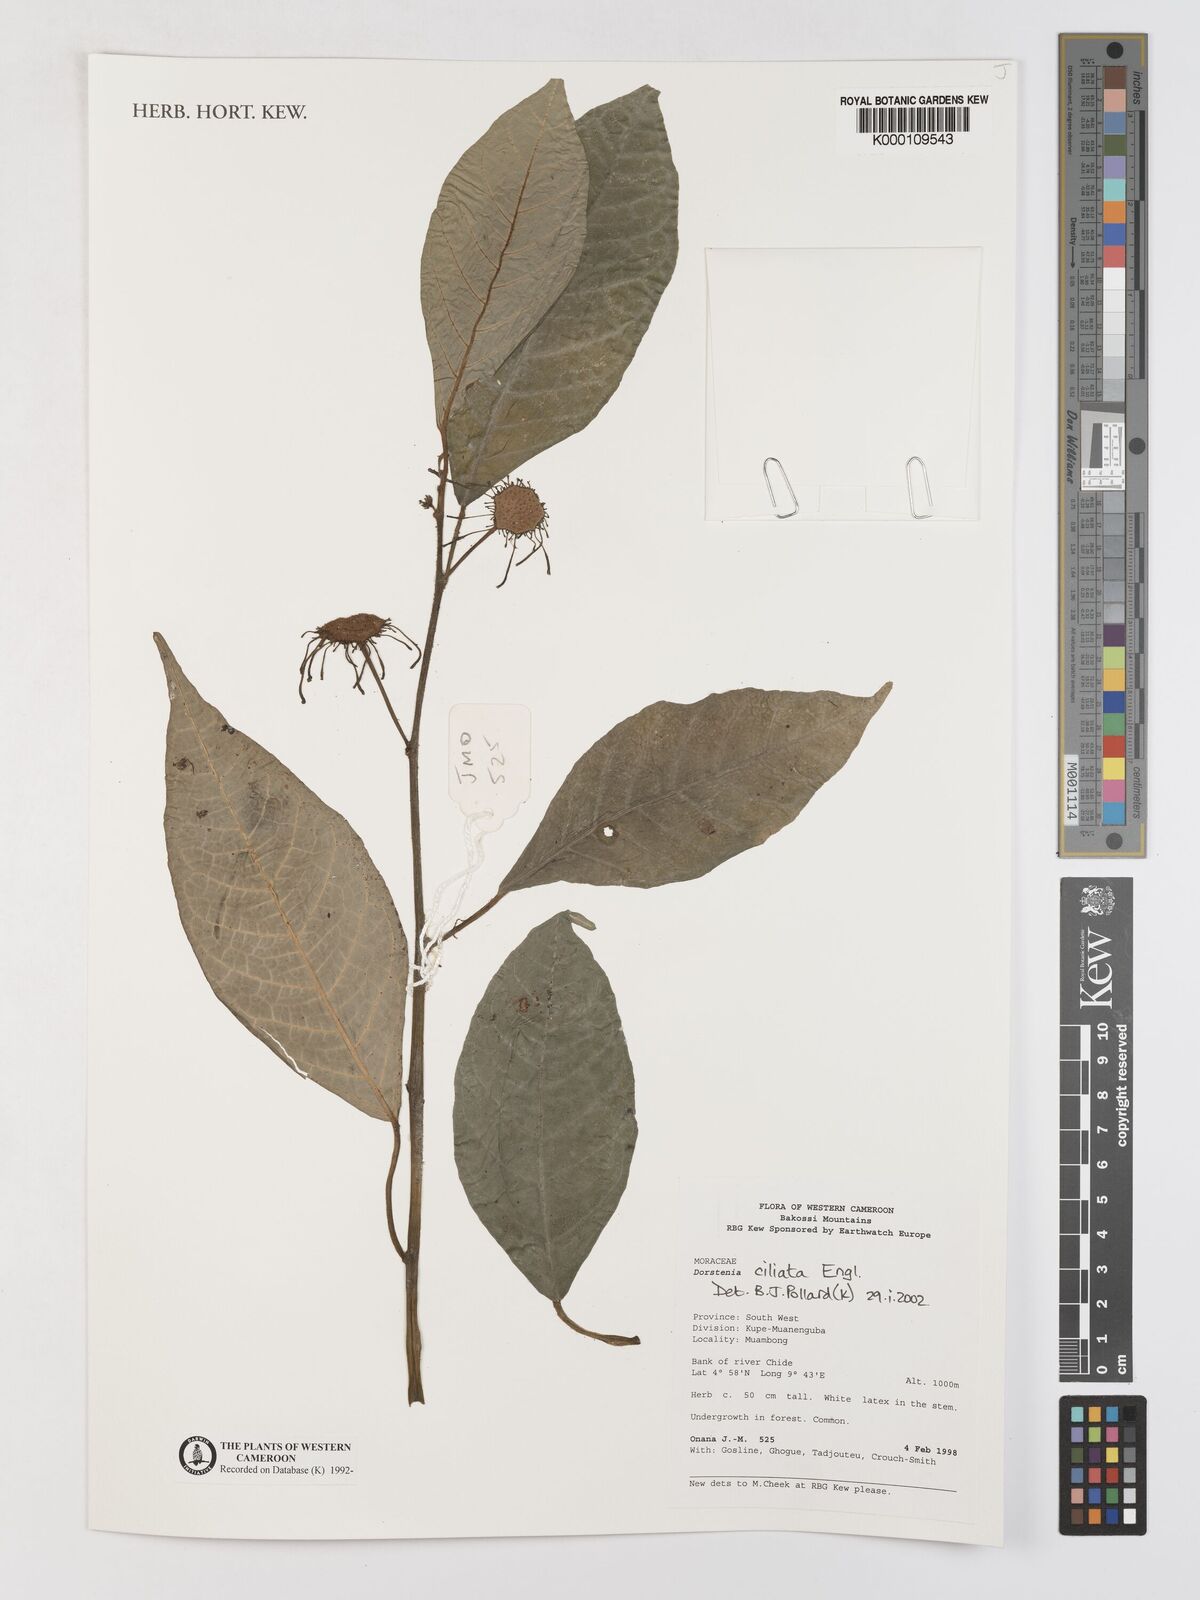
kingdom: Plantae
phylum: Tracheophyta
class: Magnoliopsida
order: Rosales
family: Moraceae
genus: Dorstenia
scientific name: Dorstenia ciliata
